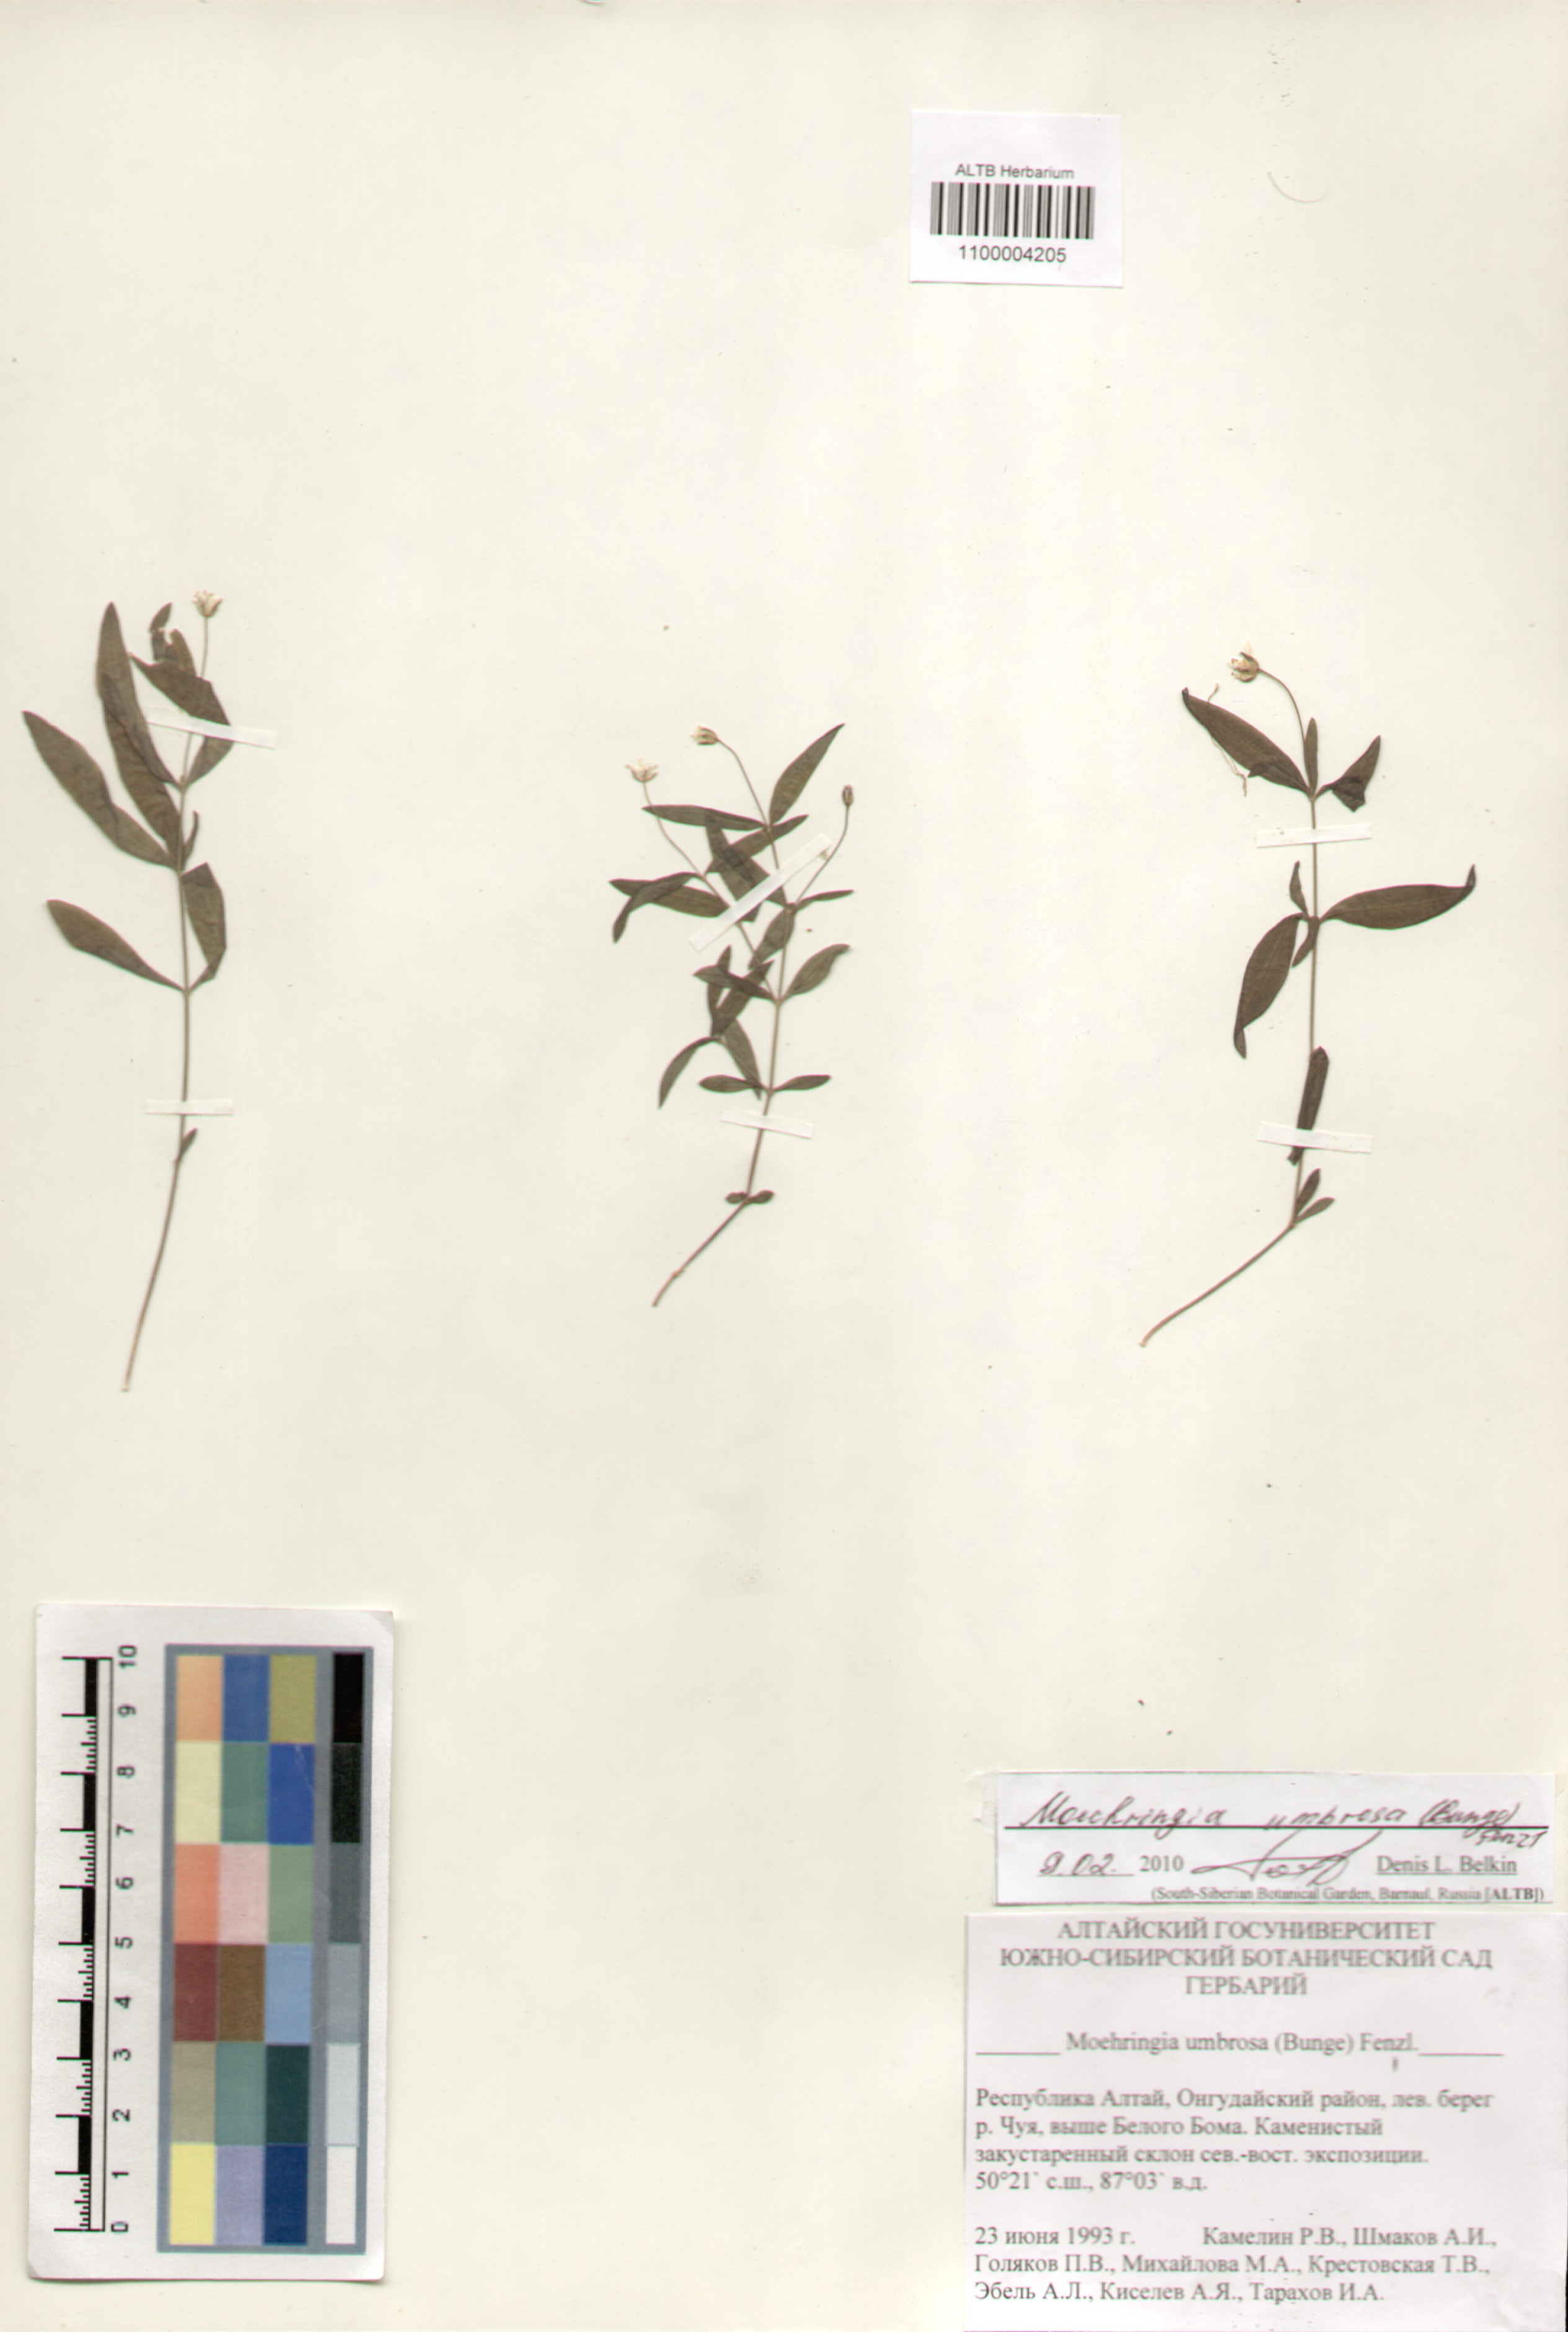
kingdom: Plantae
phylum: Tracheophyta
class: Magnoliopsida
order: Caryophyllales
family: Caryophyllaceae
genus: Moehringia
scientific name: Moehringia umbrosa
